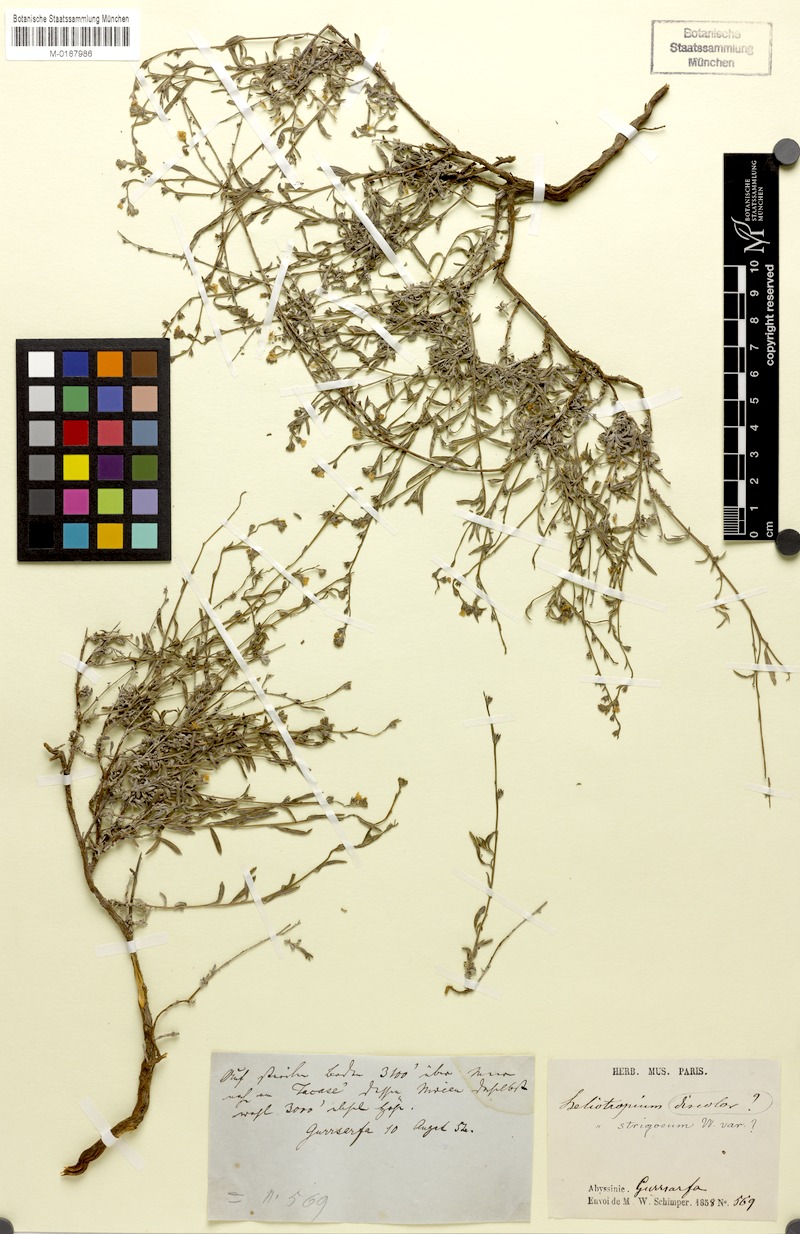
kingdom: Plantae
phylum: Tracheophyta
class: Magnoliopsida
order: Boraginales
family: Heliotropiaceae
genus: Euploca
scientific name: Euploca strigosa
